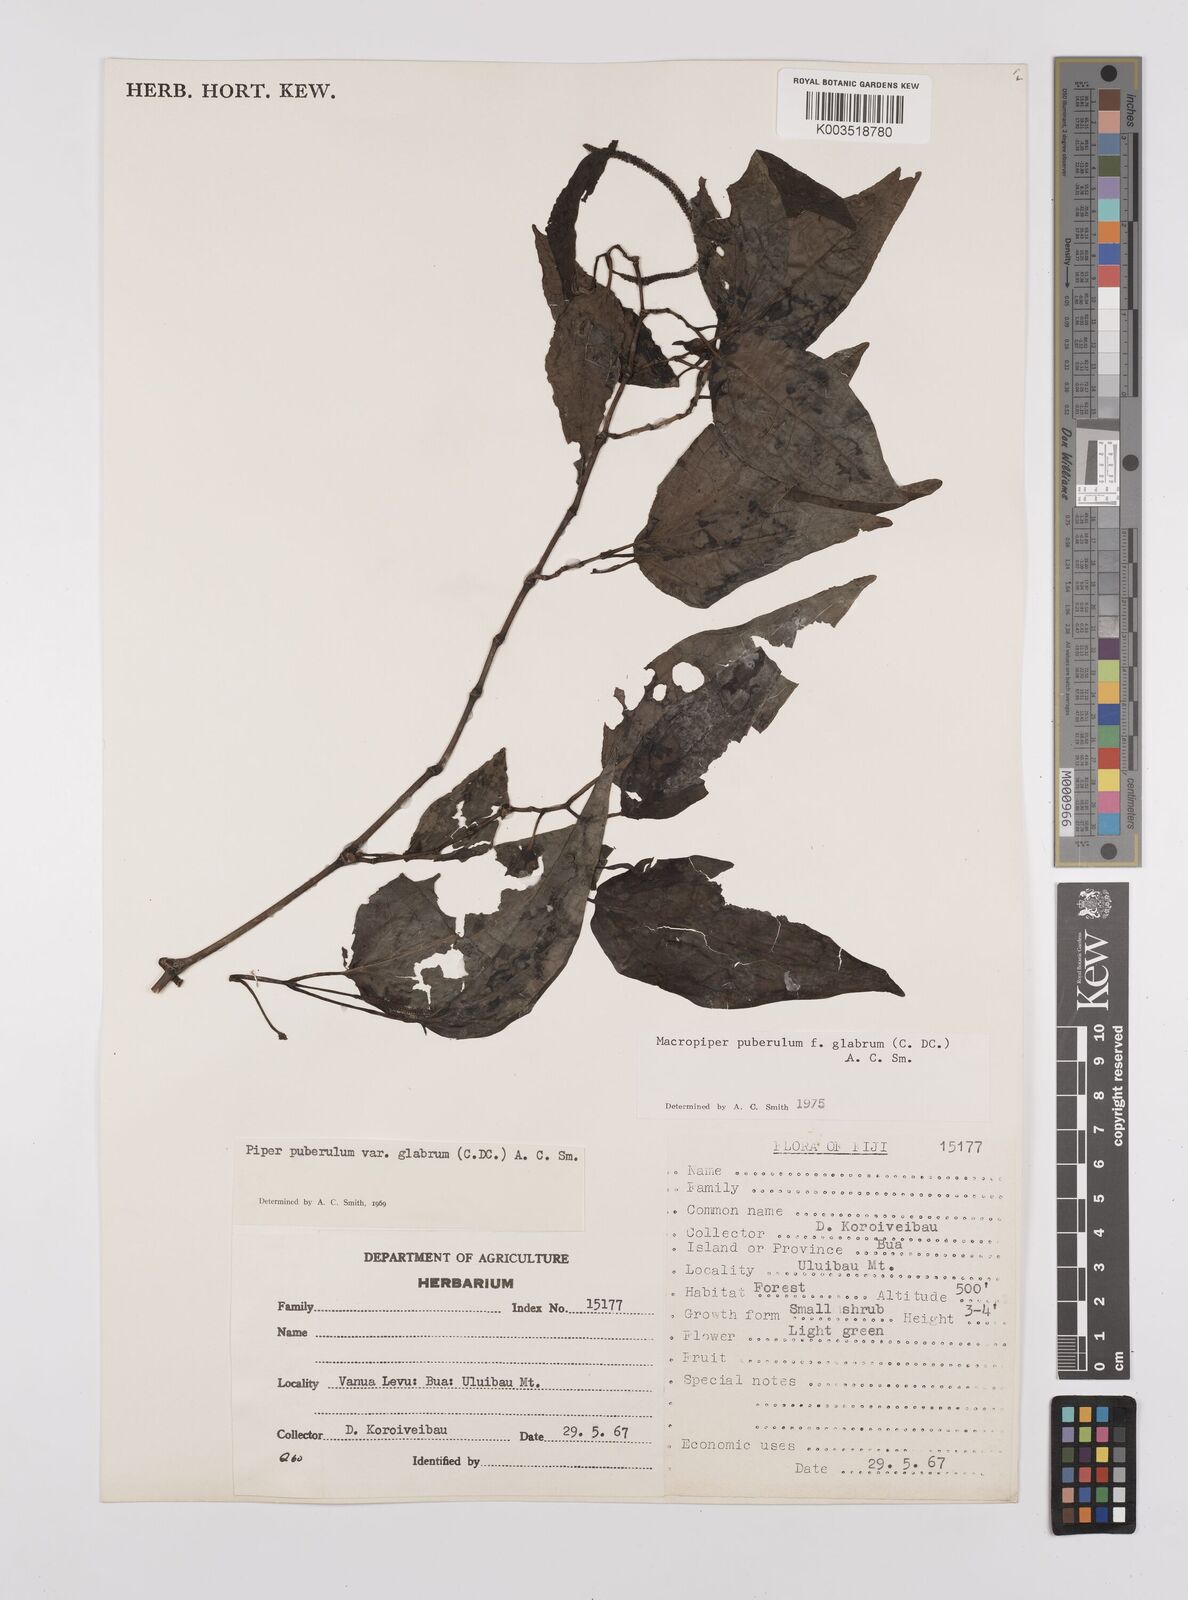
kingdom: Plantae
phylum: Tracheophyta
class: Magnoliopsida
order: Piperales
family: Piperaceae
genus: Macropiper
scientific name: Macropiper puberulum
